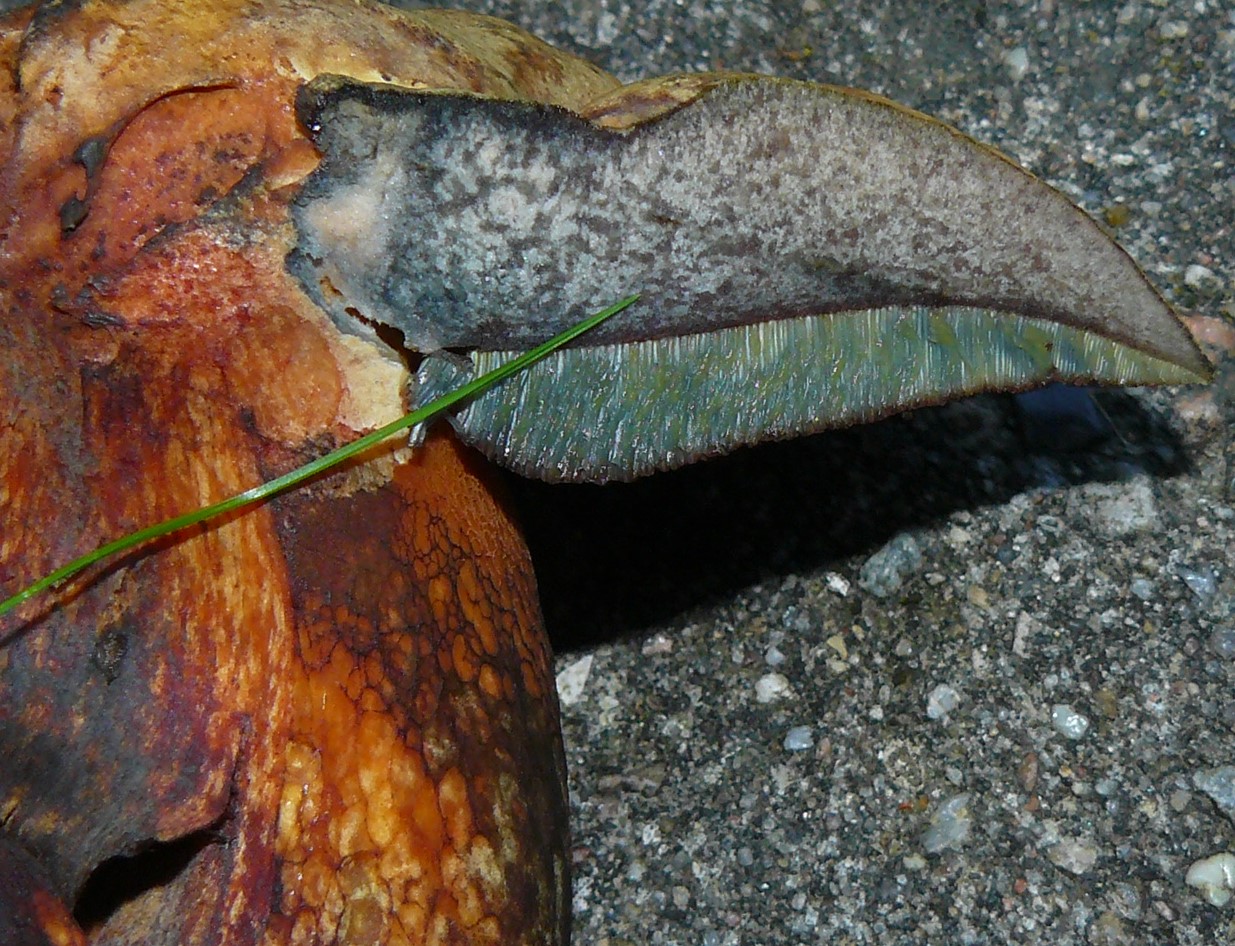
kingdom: Fungi
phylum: Basidiomycota
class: Agaricomycetes
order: Boletales
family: Boletaceae
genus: Suillellus
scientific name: Suillellus luridus
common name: netstokket indigorørhat
